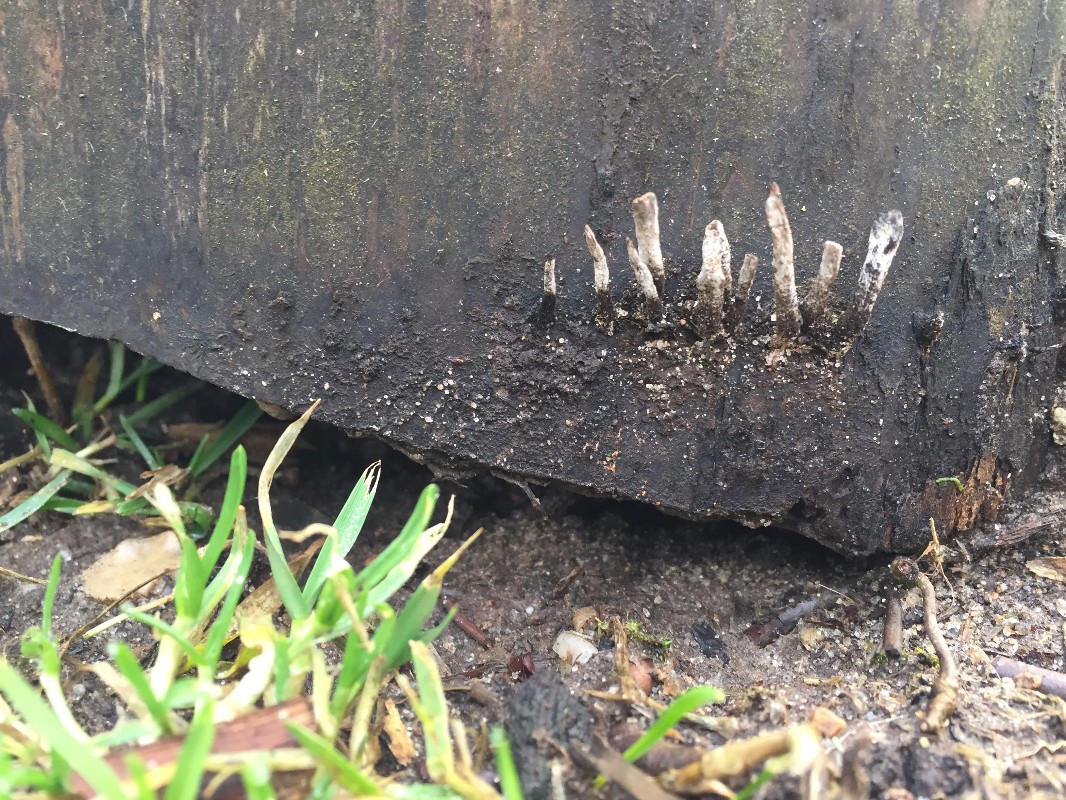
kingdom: Fungi
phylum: Ascomycota
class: Sordariomycetes
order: Xylariales
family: Xylariaceae
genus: Xylaria
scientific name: Xylaria hypoxylon
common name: grenet stødsvamp
